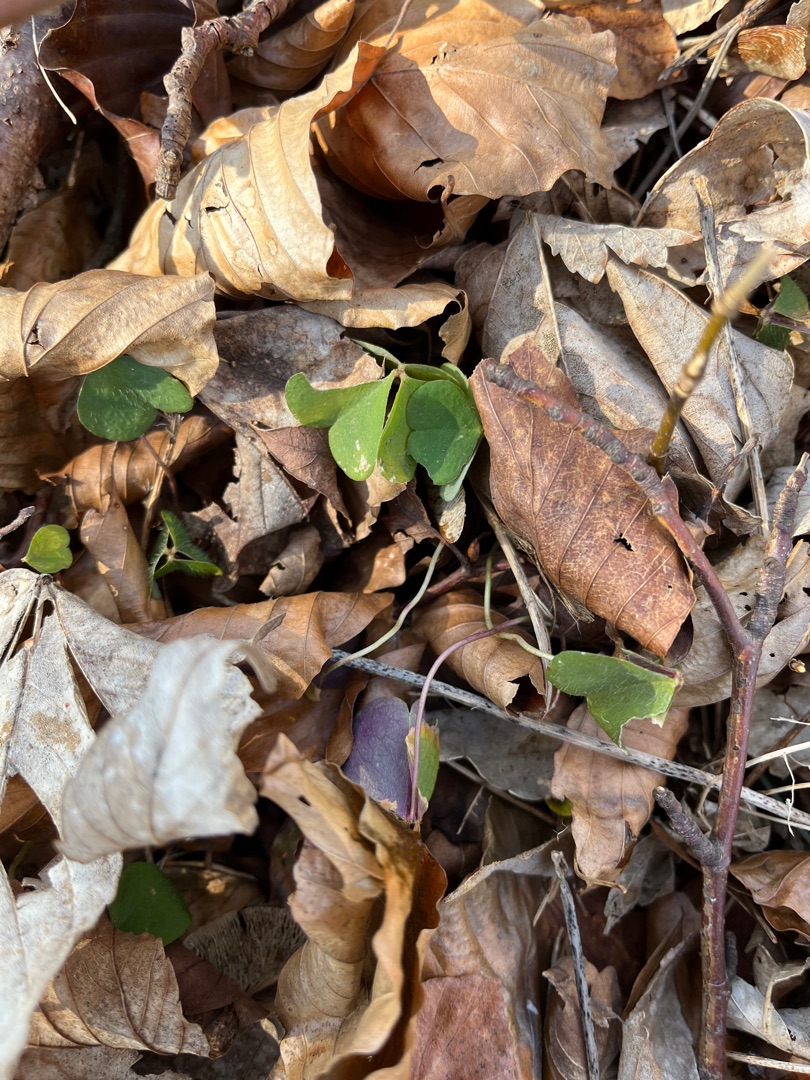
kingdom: Plantae
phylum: Tracheophyta
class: Magnoliopsida
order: Oxalidales
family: Oxalidaceae
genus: Oxalis
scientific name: Oxalis acetosella
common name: Skovsyre
